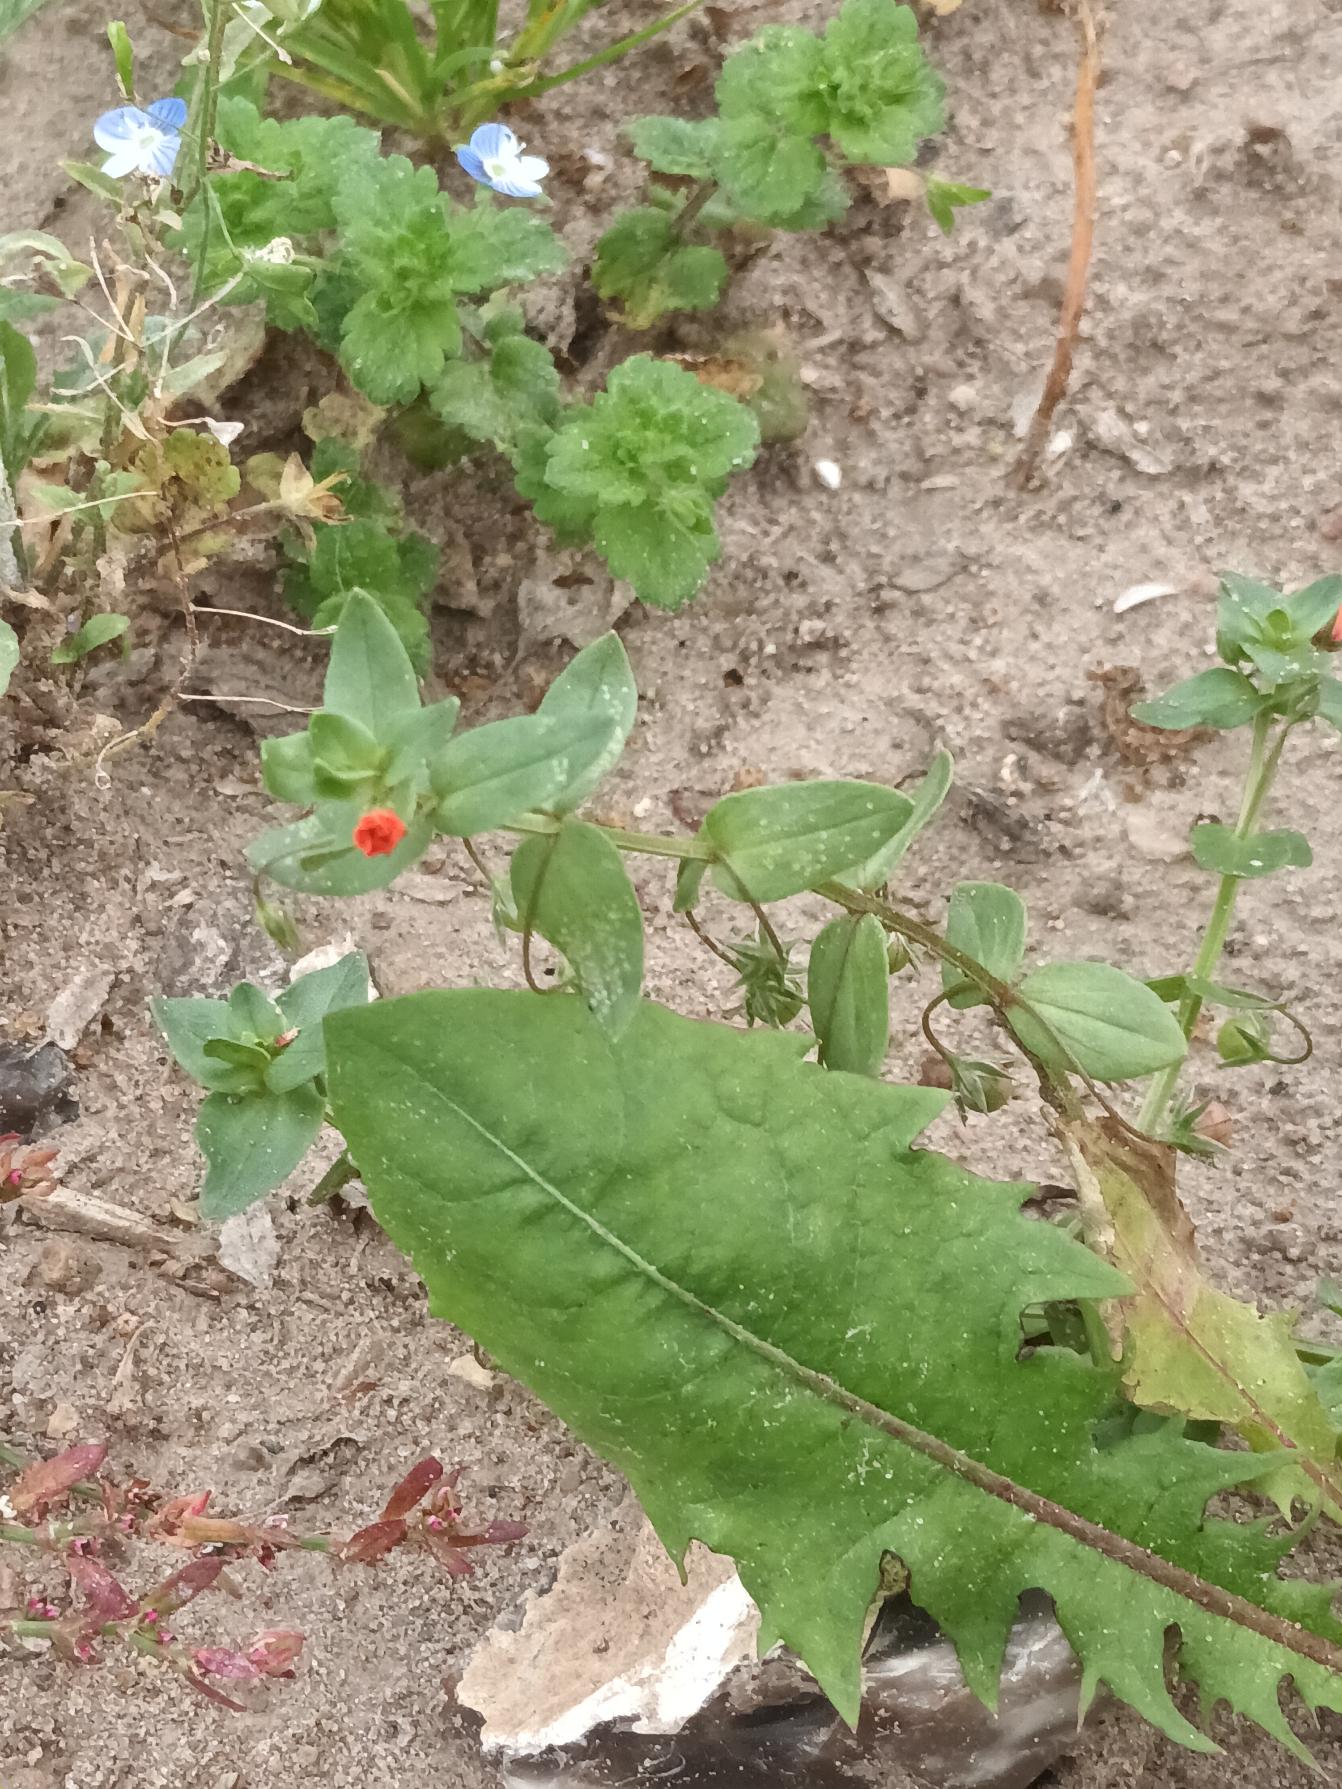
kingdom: Plantae
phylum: Tracheophyta
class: Magnoliopsida
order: Ericales
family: Primulaceae
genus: Lysimachia
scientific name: Lysimachia arvensis
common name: Rød arve
